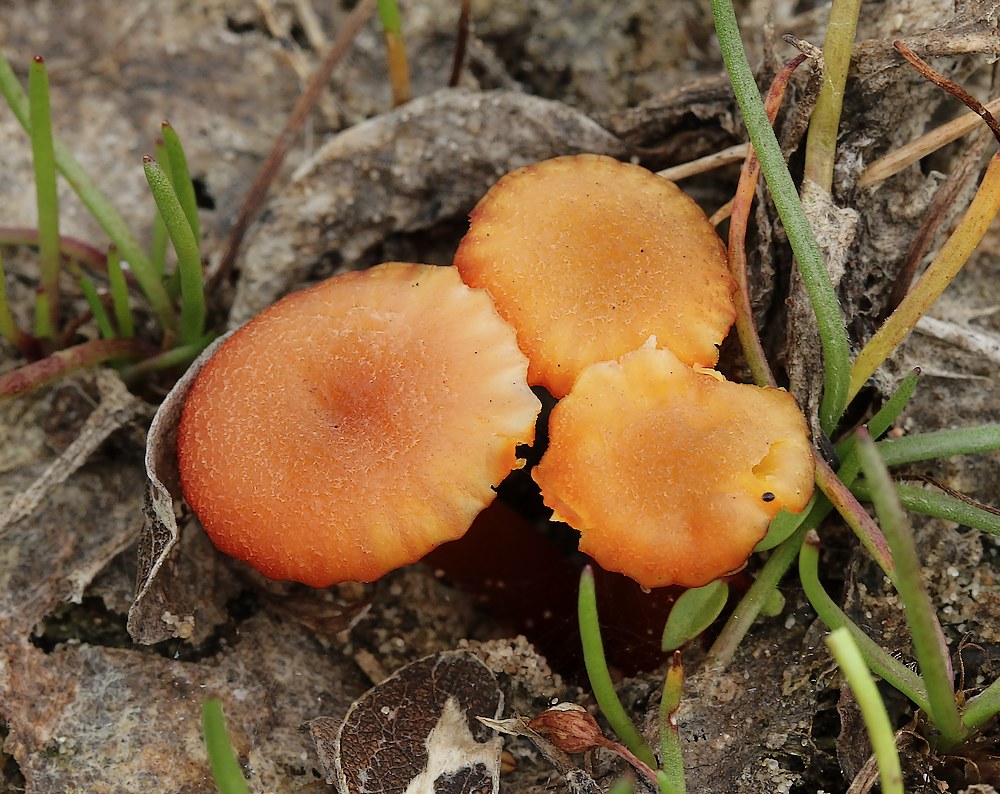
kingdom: Fungi
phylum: Basidiomycota
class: Agaricomycetes
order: Agaricales
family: Hygrophoraceae
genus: Hygrocybe
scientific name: Hygrocybe substrangulata
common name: kær-vokshat
